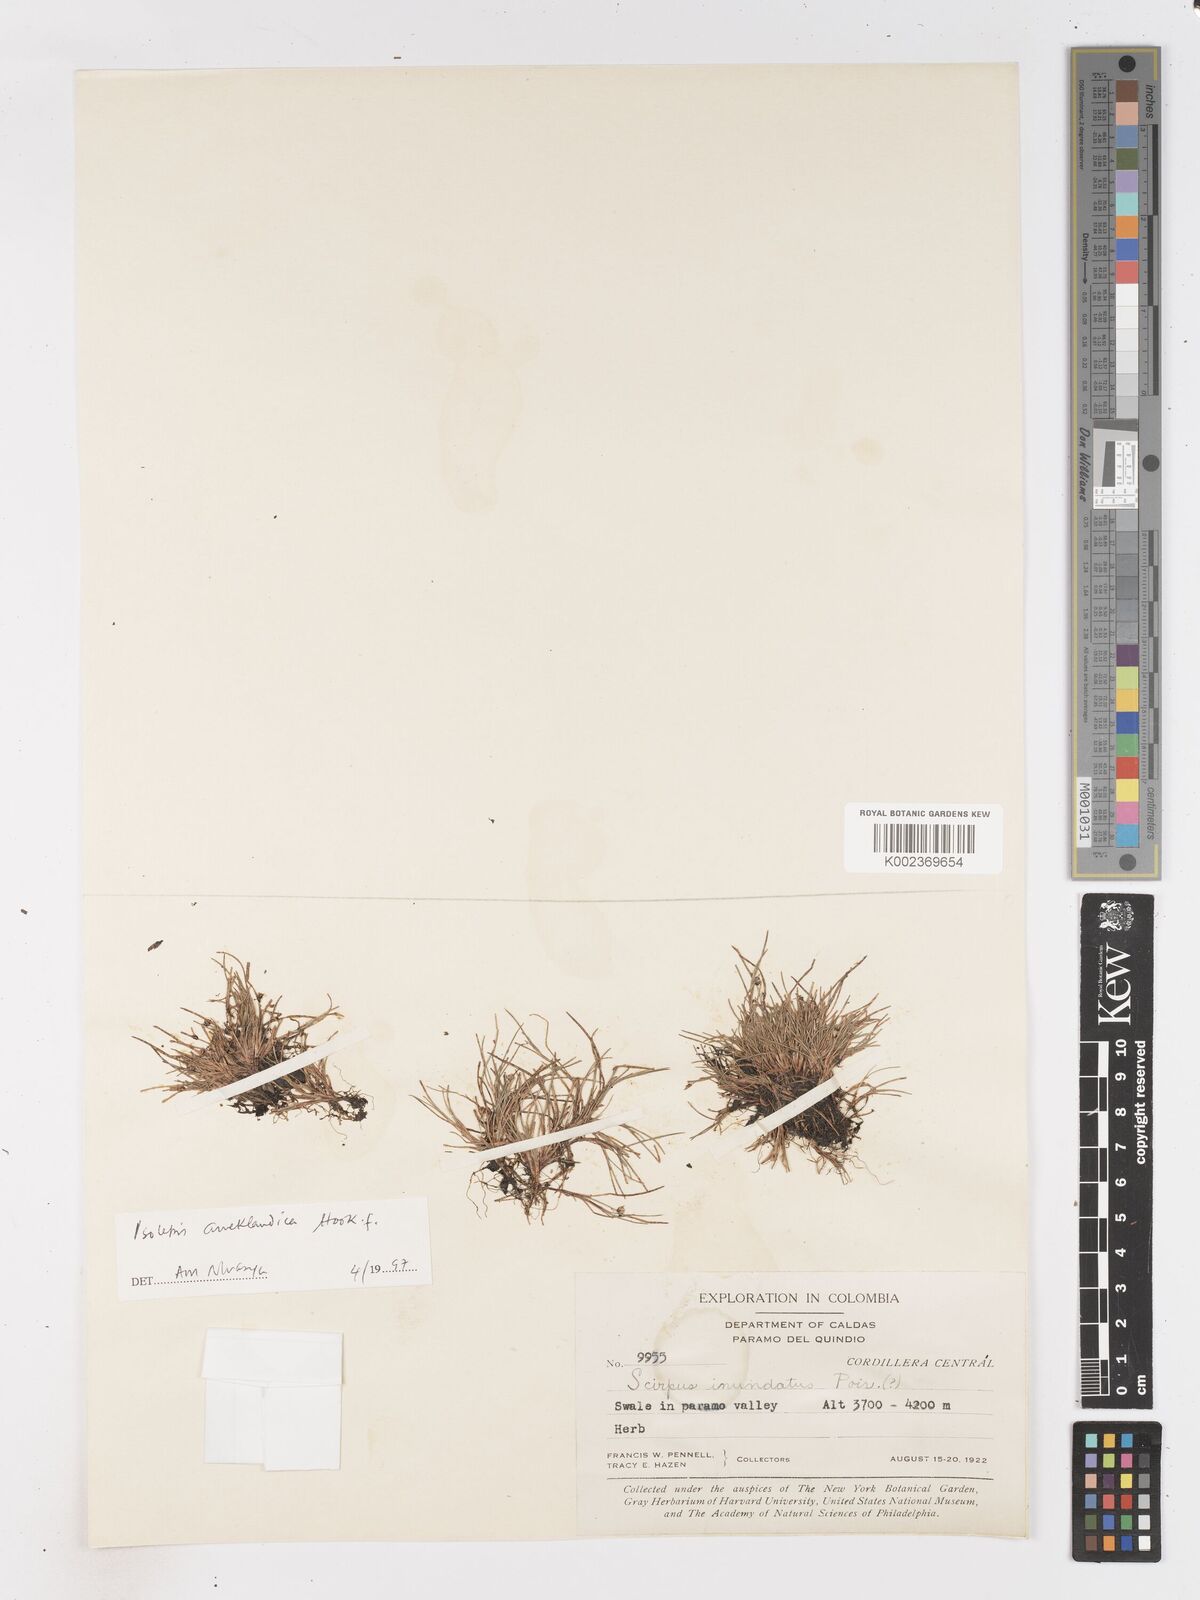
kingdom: Plantae
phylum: Tracheophyta
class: Liliopsida
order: Poales
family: Cyperaceae
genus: Isolepis
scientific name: Isolepis aucklandica
